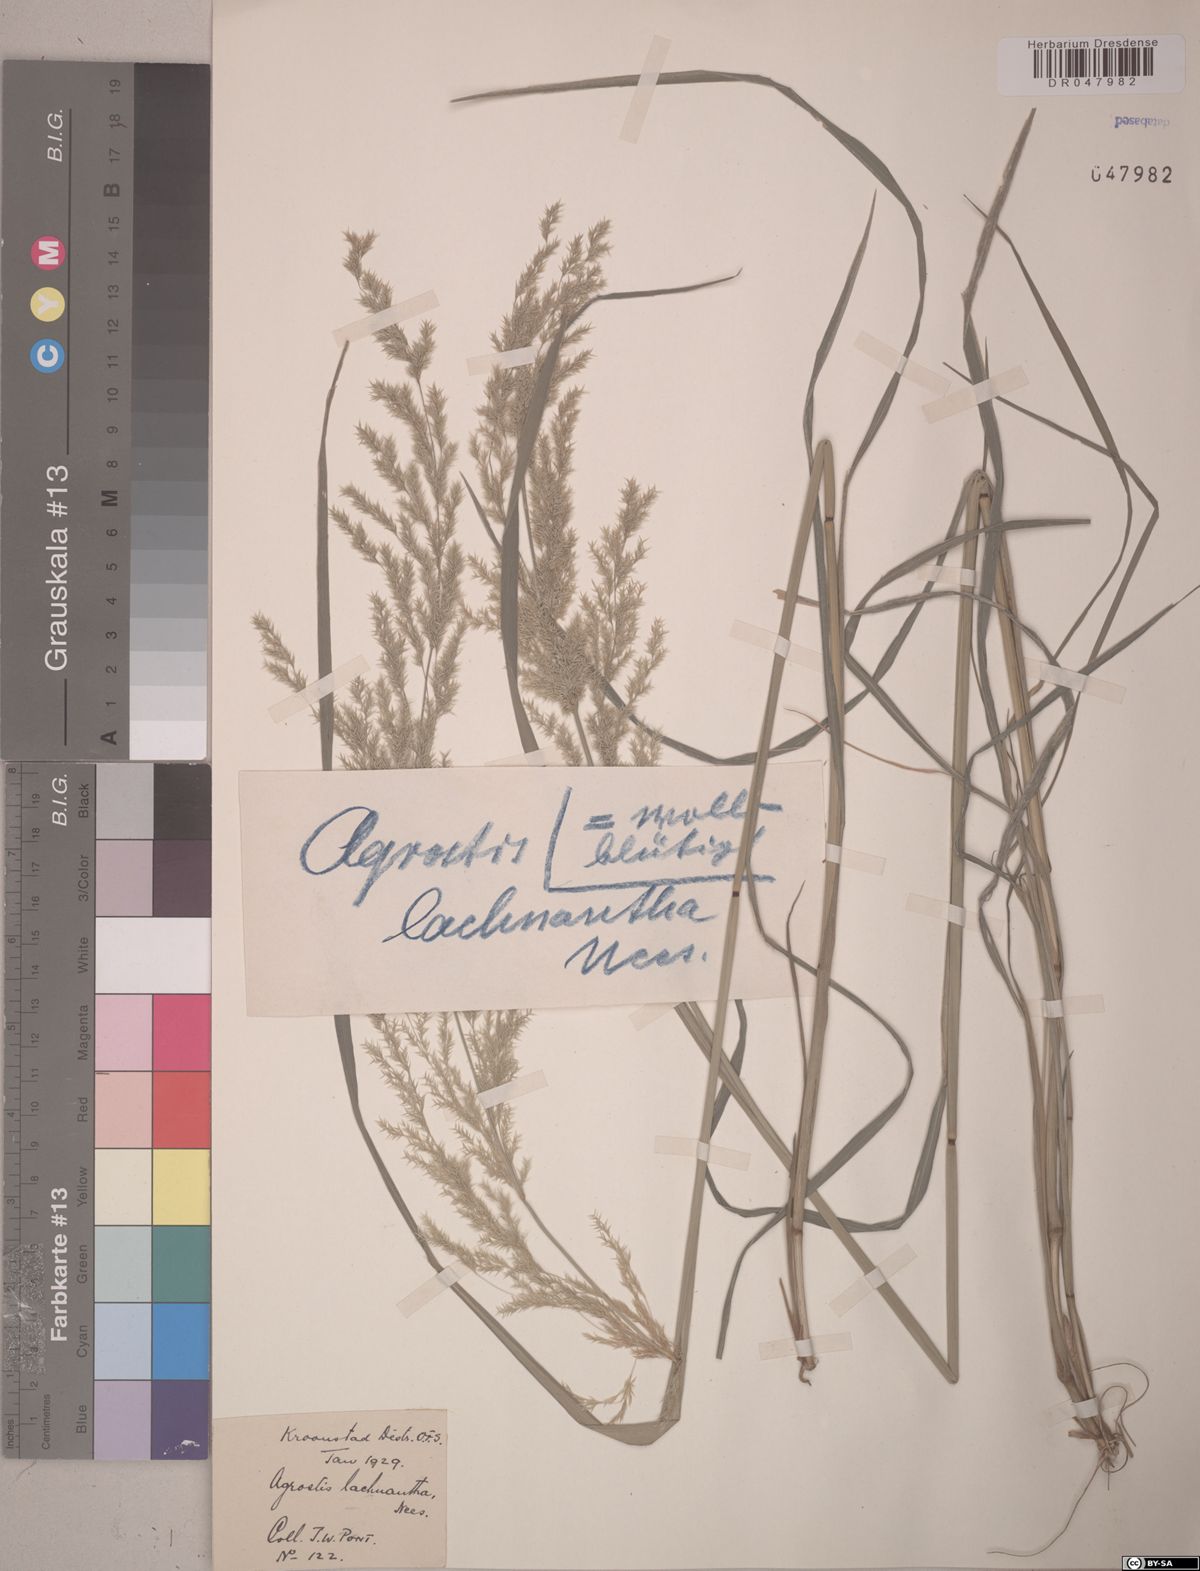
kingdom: Plantae
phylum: Tracheophyta
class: Liliopsida
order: Poales
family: Poaceae
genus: Lachnagrostis
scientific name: Lachnagrostis lachnantha
